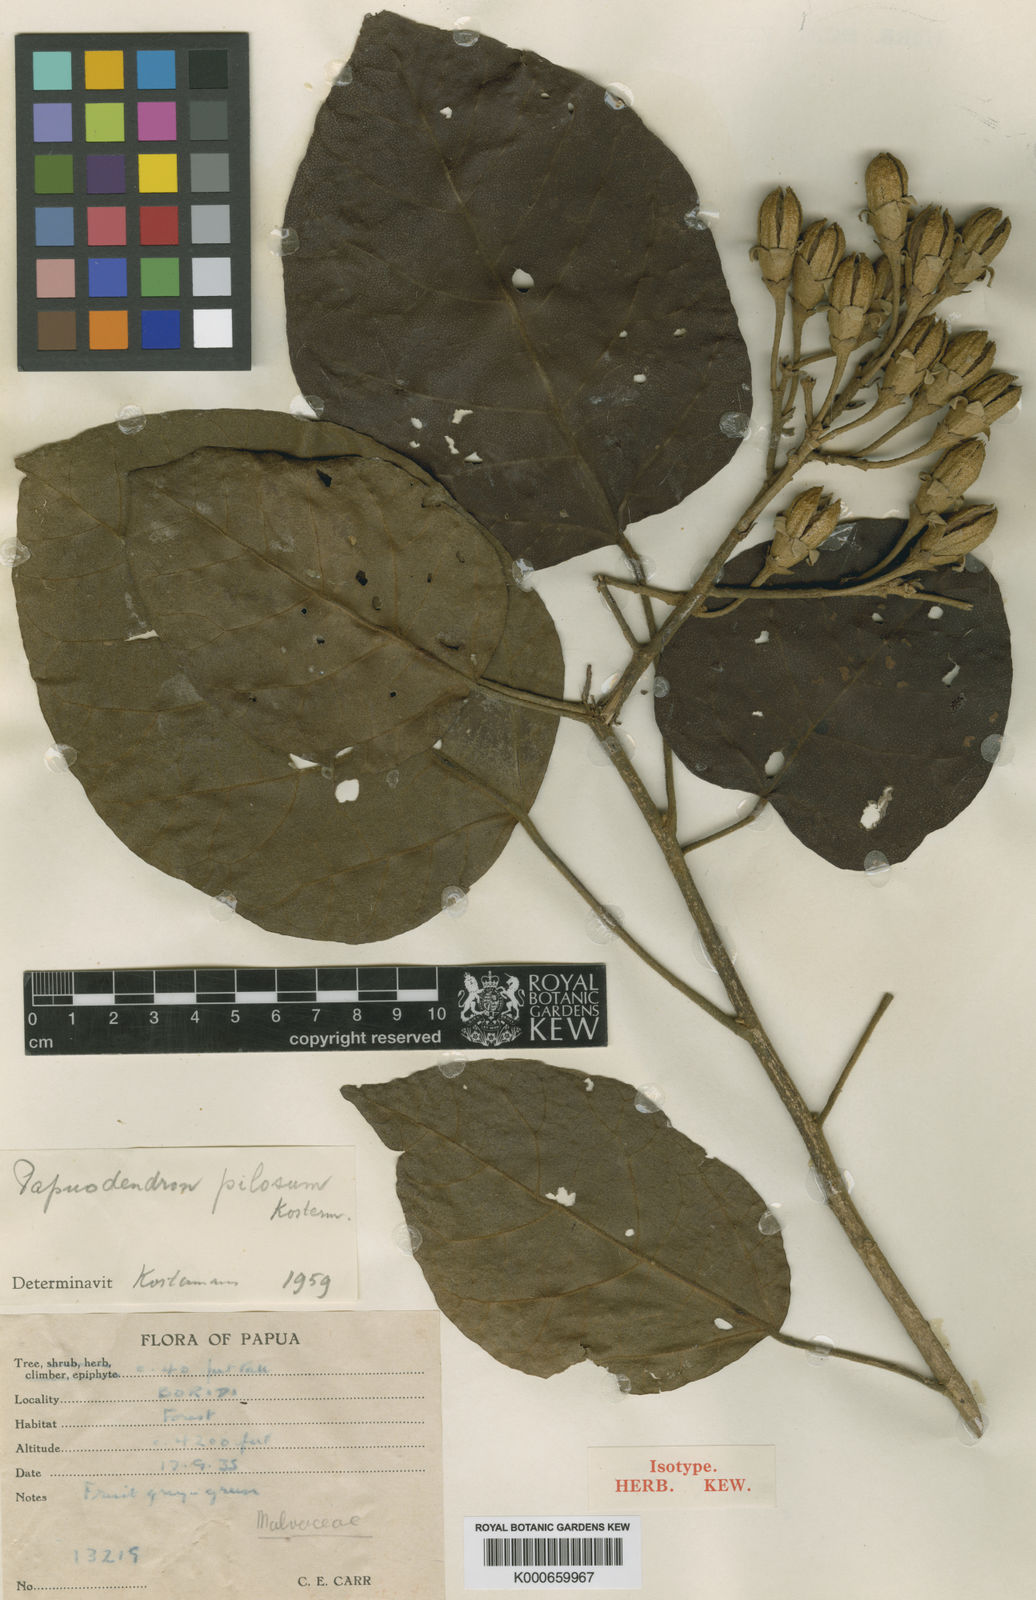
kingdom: Plantae
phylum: Tracheophyta
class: Magnoliopsida
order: Malvales
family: Malvaceae
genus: Papuodendron
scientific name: Papuodendron
